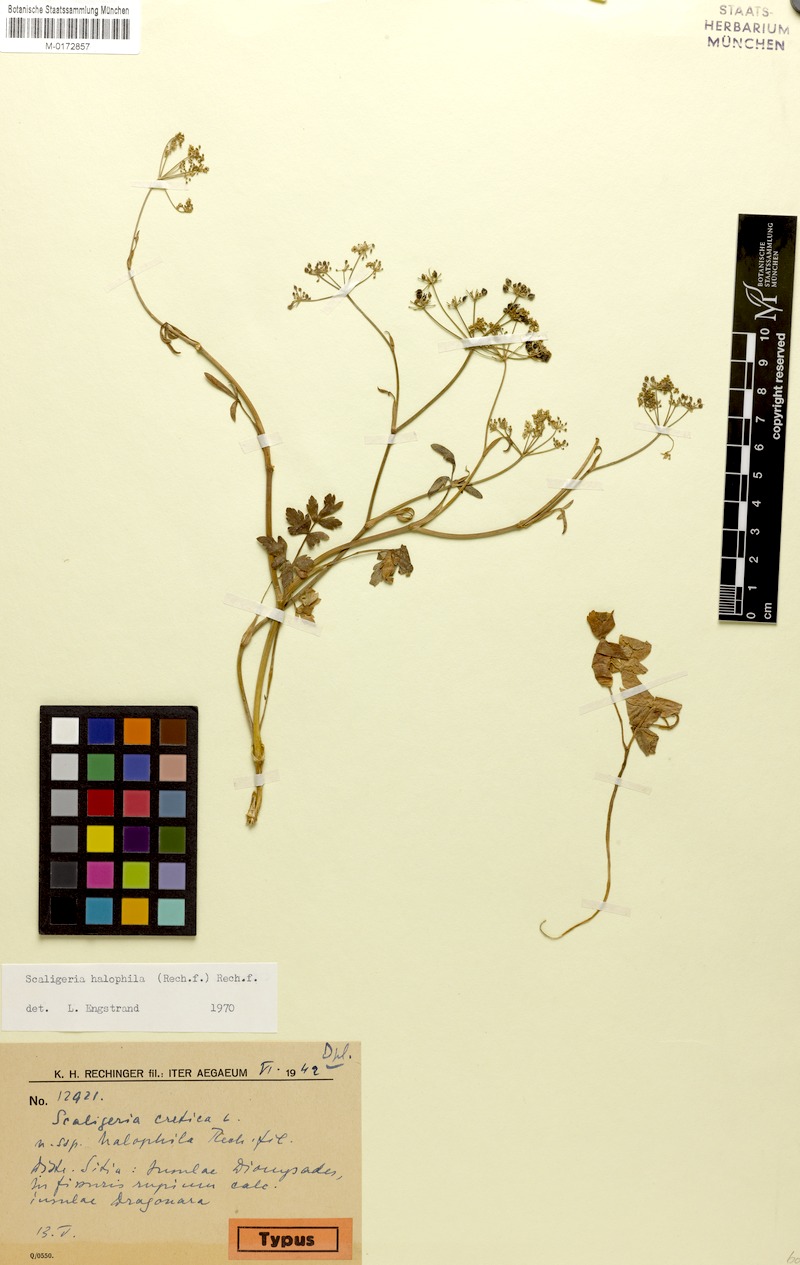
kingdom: Plantae
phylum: Tracheophyta
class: Magnoliopsida
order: Apiales
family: Apiaceae
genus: Scaligeria
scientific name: Scaligeria halophila
